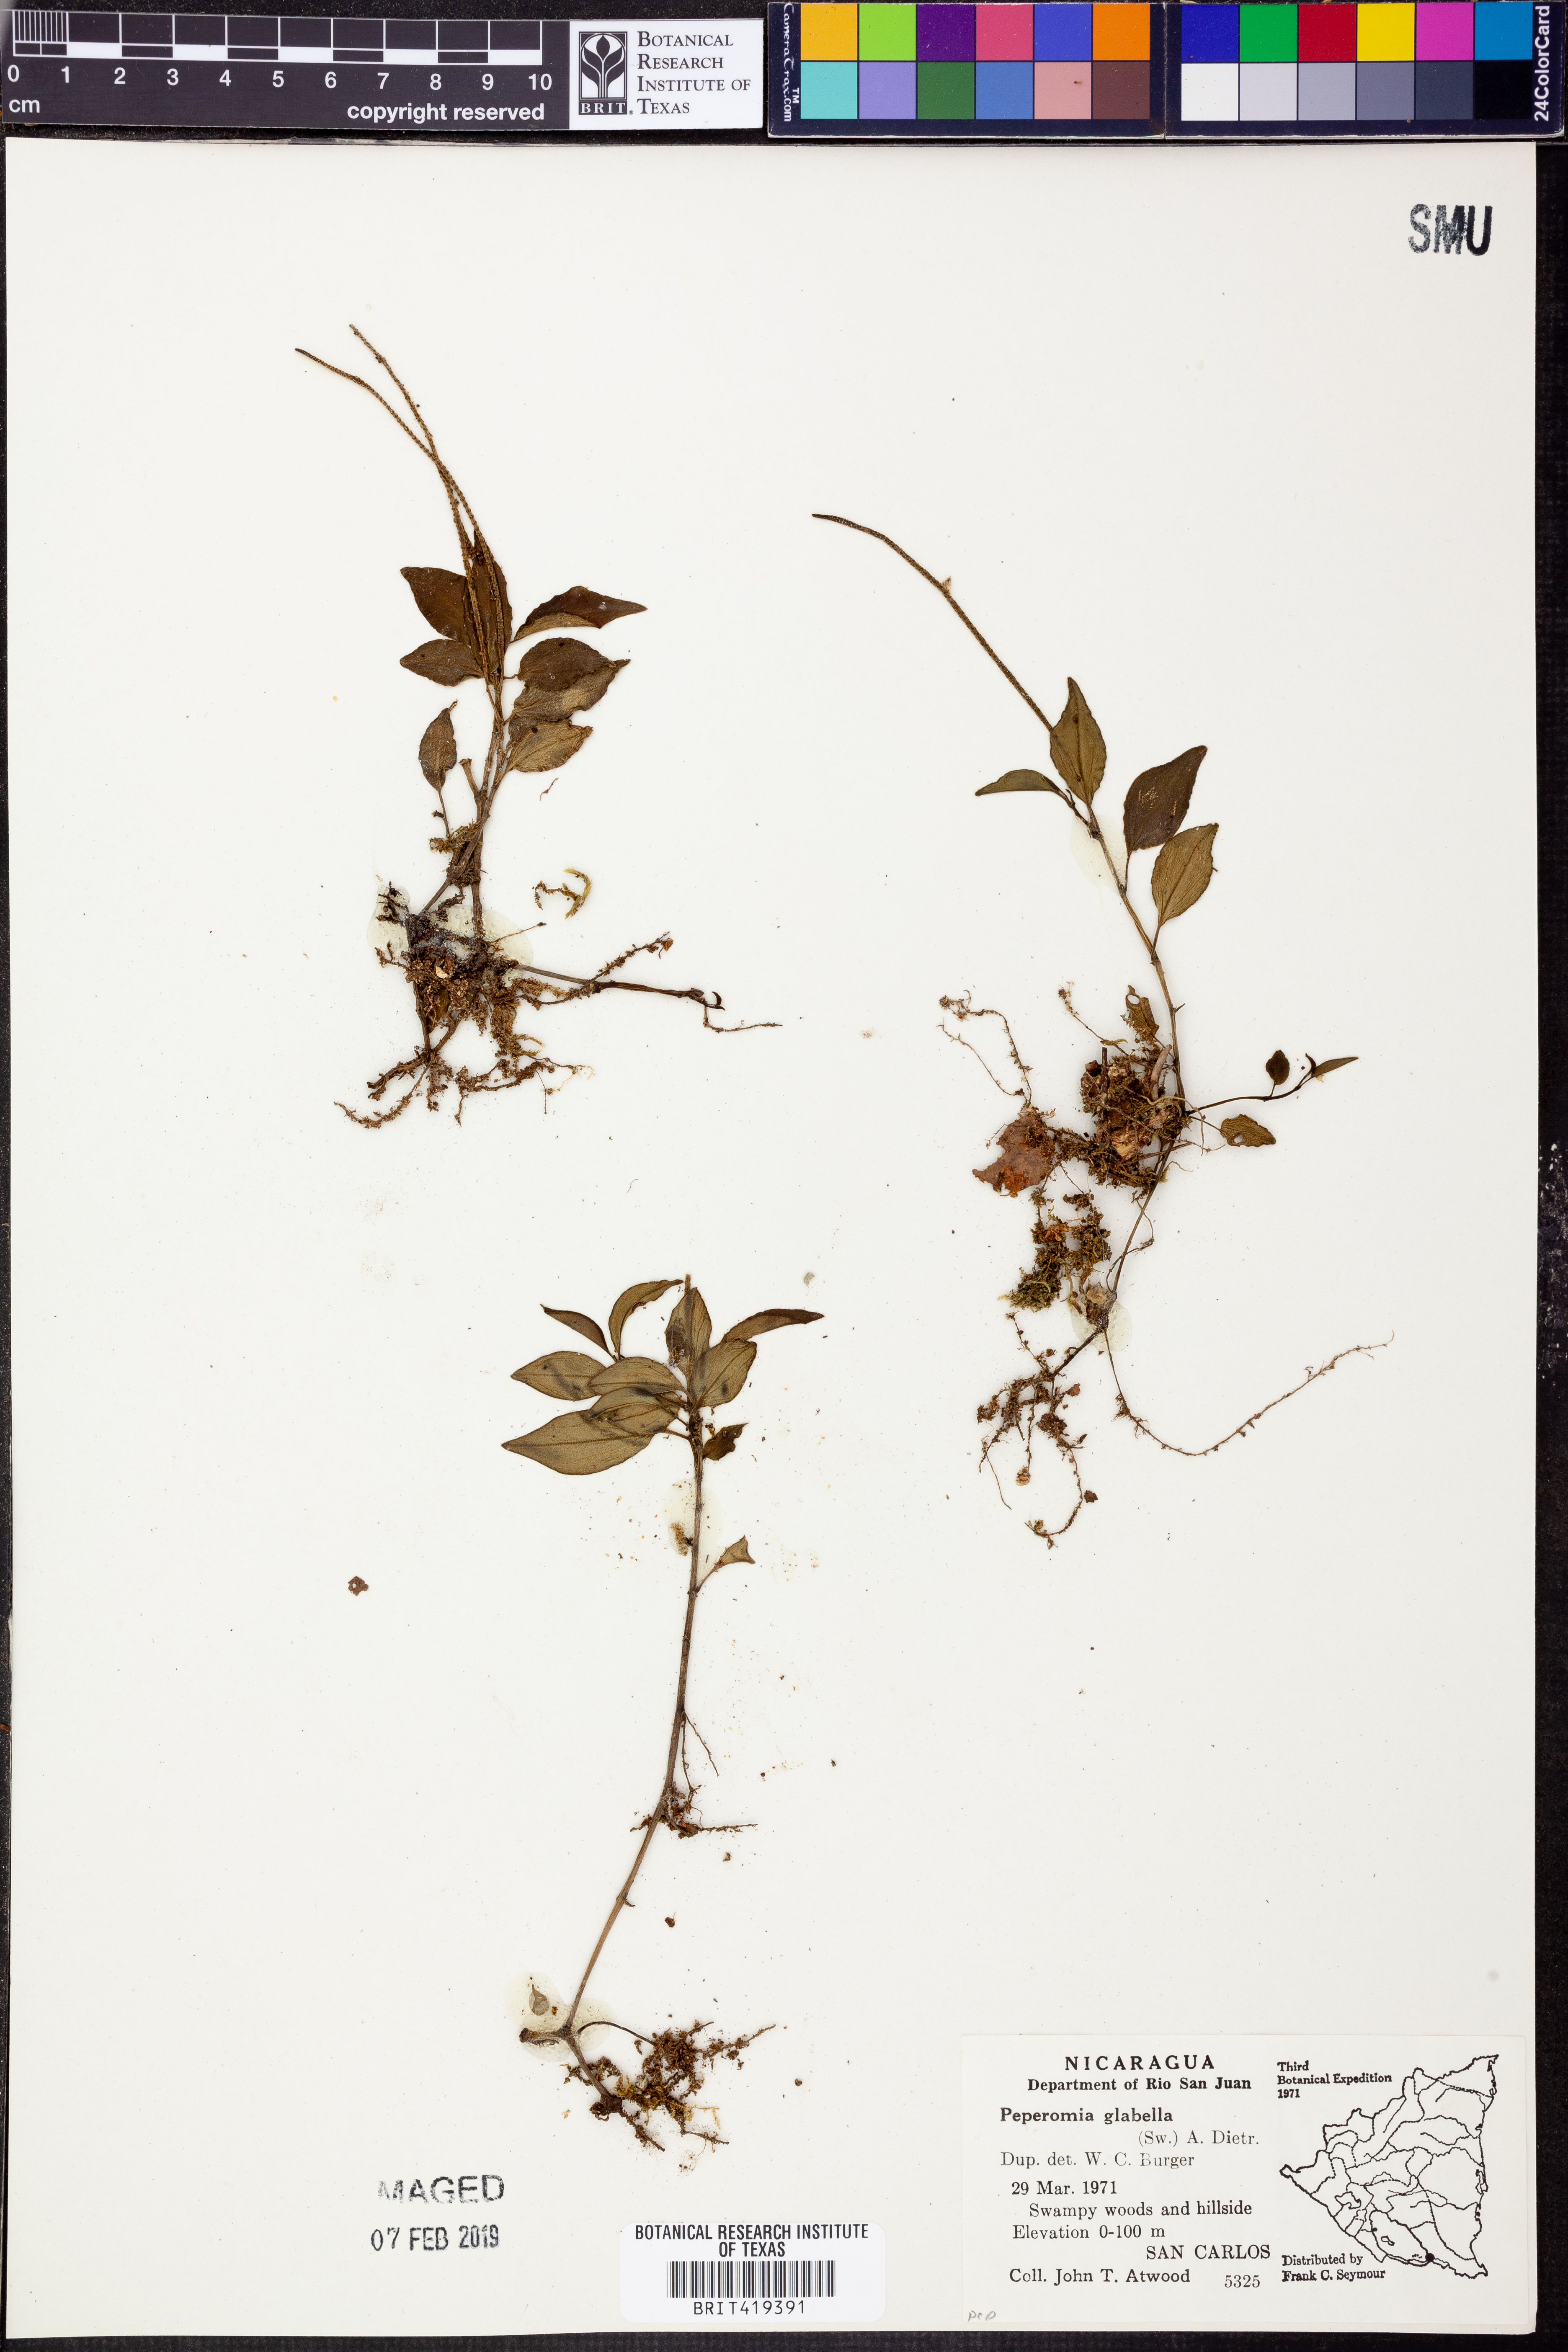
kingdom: Plantae
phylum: Tracheophyta
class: Magnoliopsida
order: Piperales
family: Piperaceae
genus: Peperomia
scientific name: Peperomia glabella
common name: Cypress peperomia
